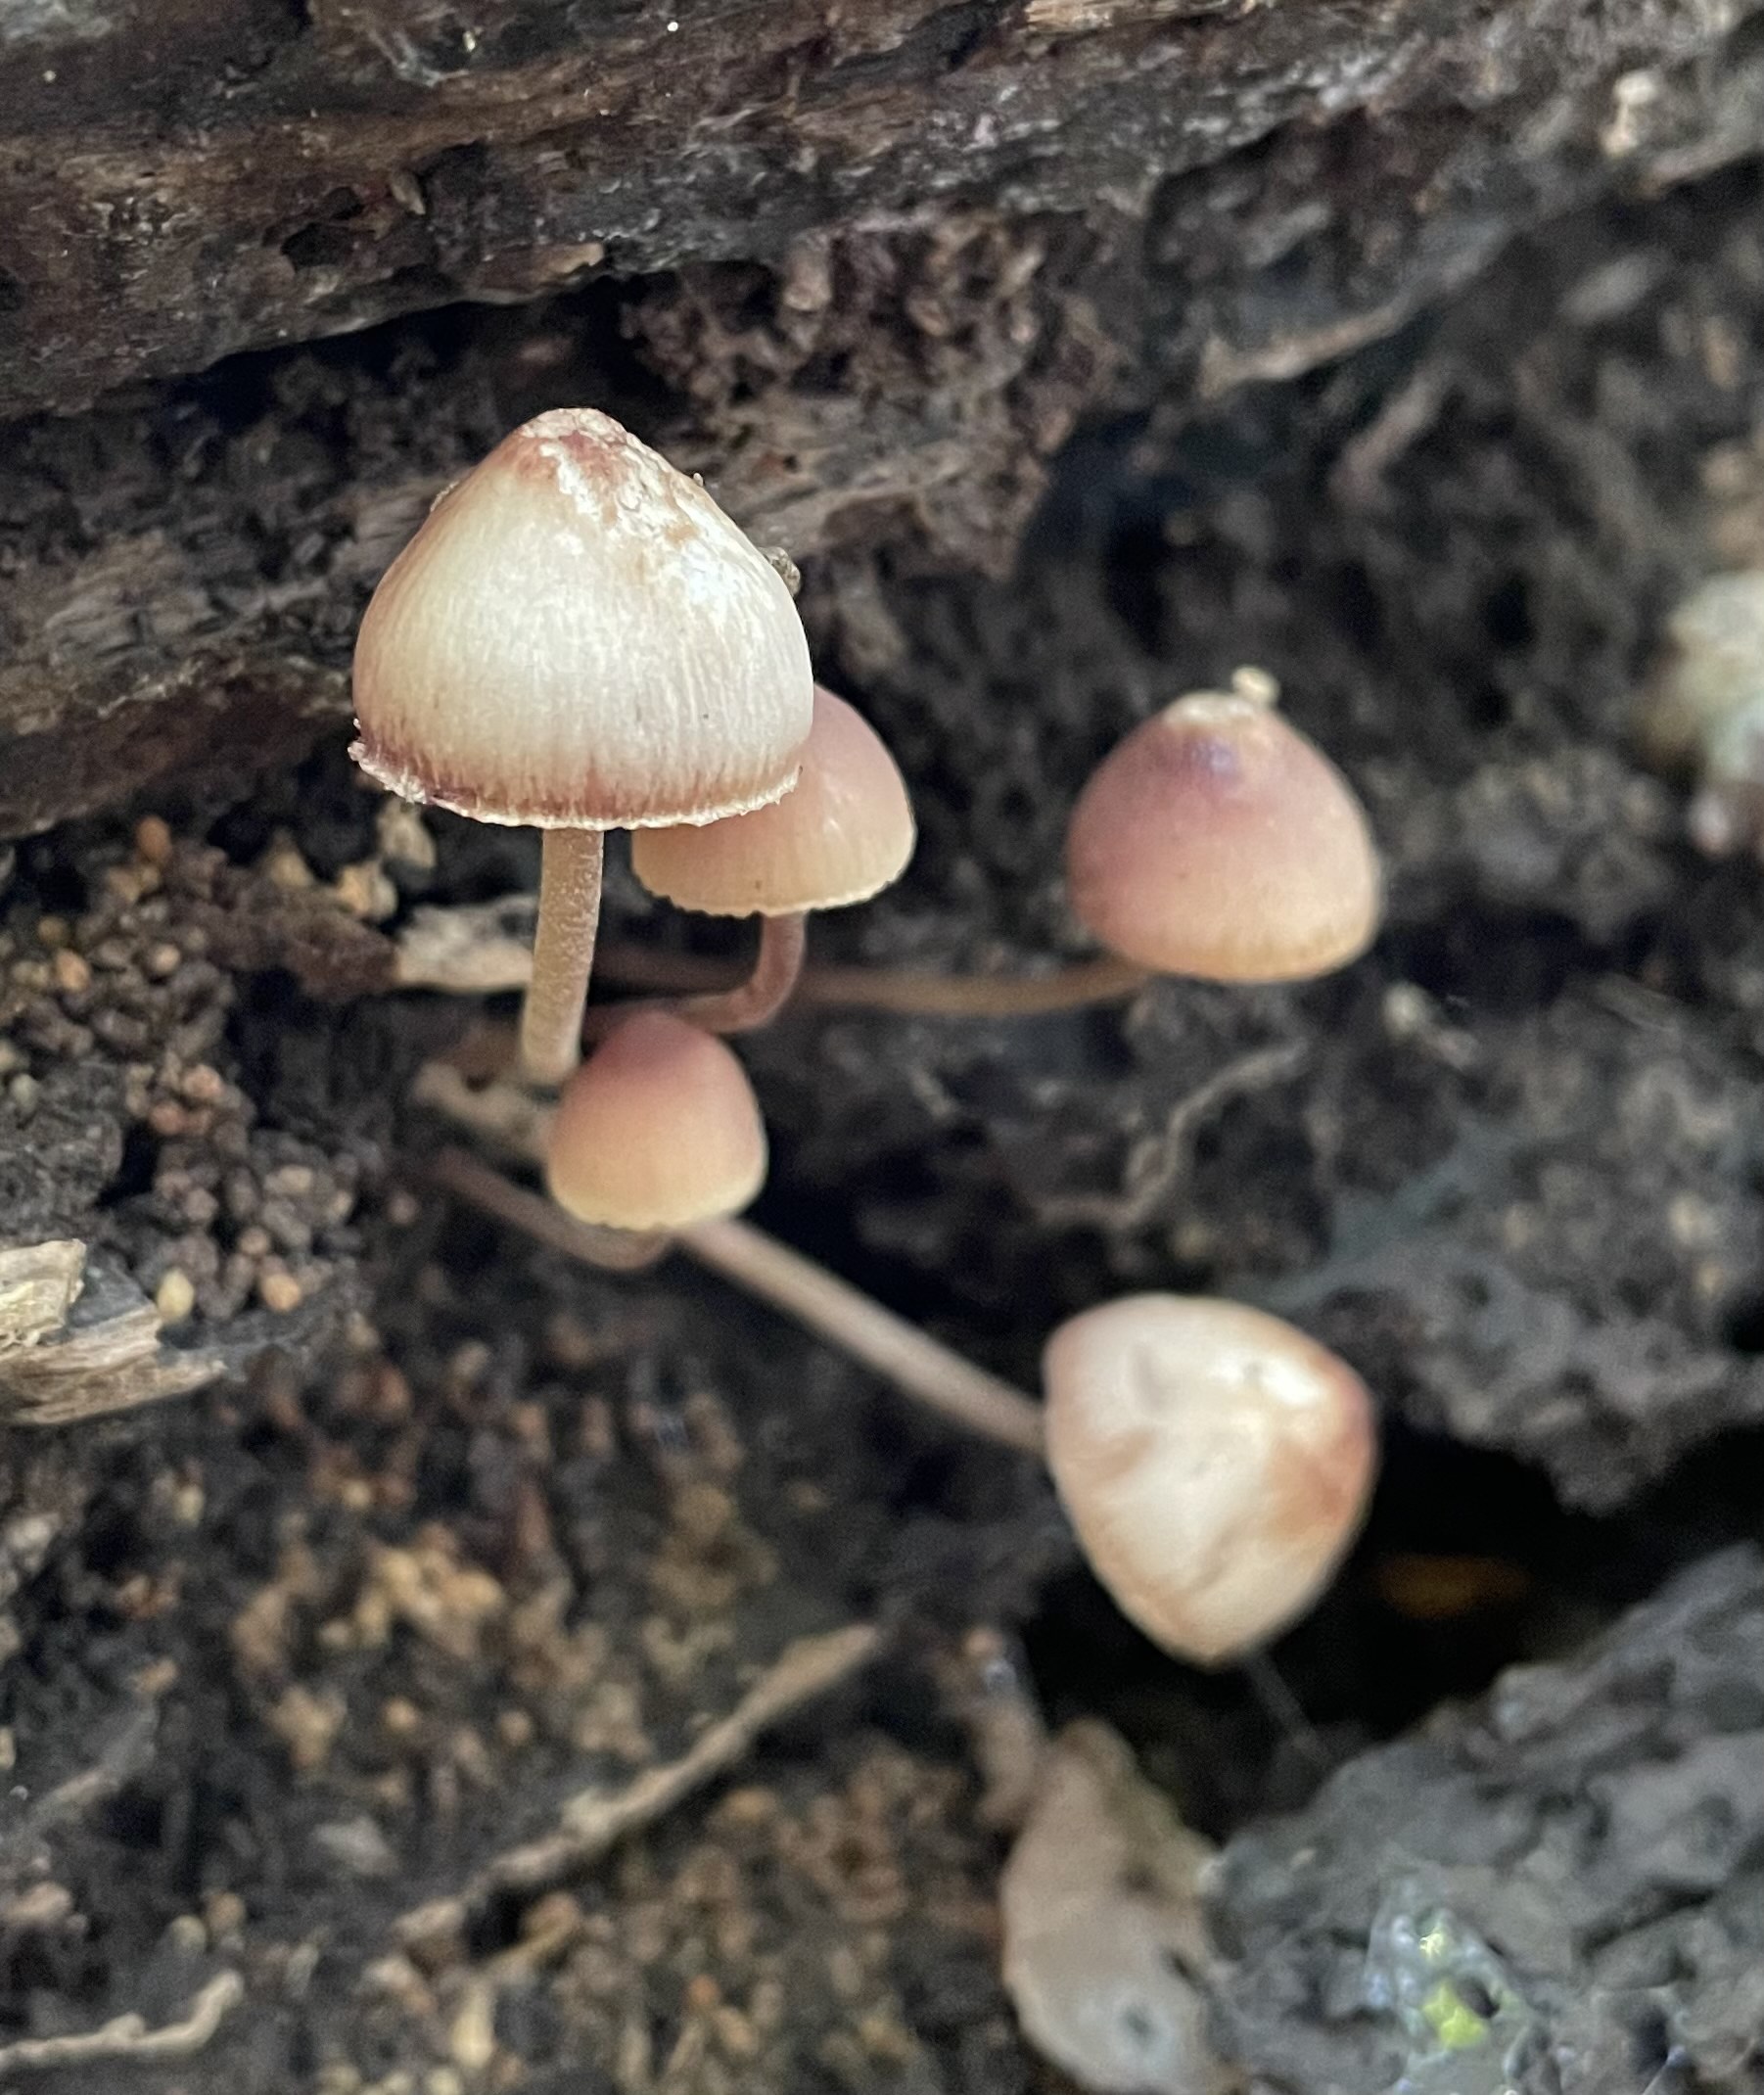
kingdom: Fungi
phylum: Basidiomycota
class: Agaricomycetes
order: Agaricales
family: Mycenaceae
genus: Mycena
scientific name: Mycena haematopus
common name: blødende huesvamp
